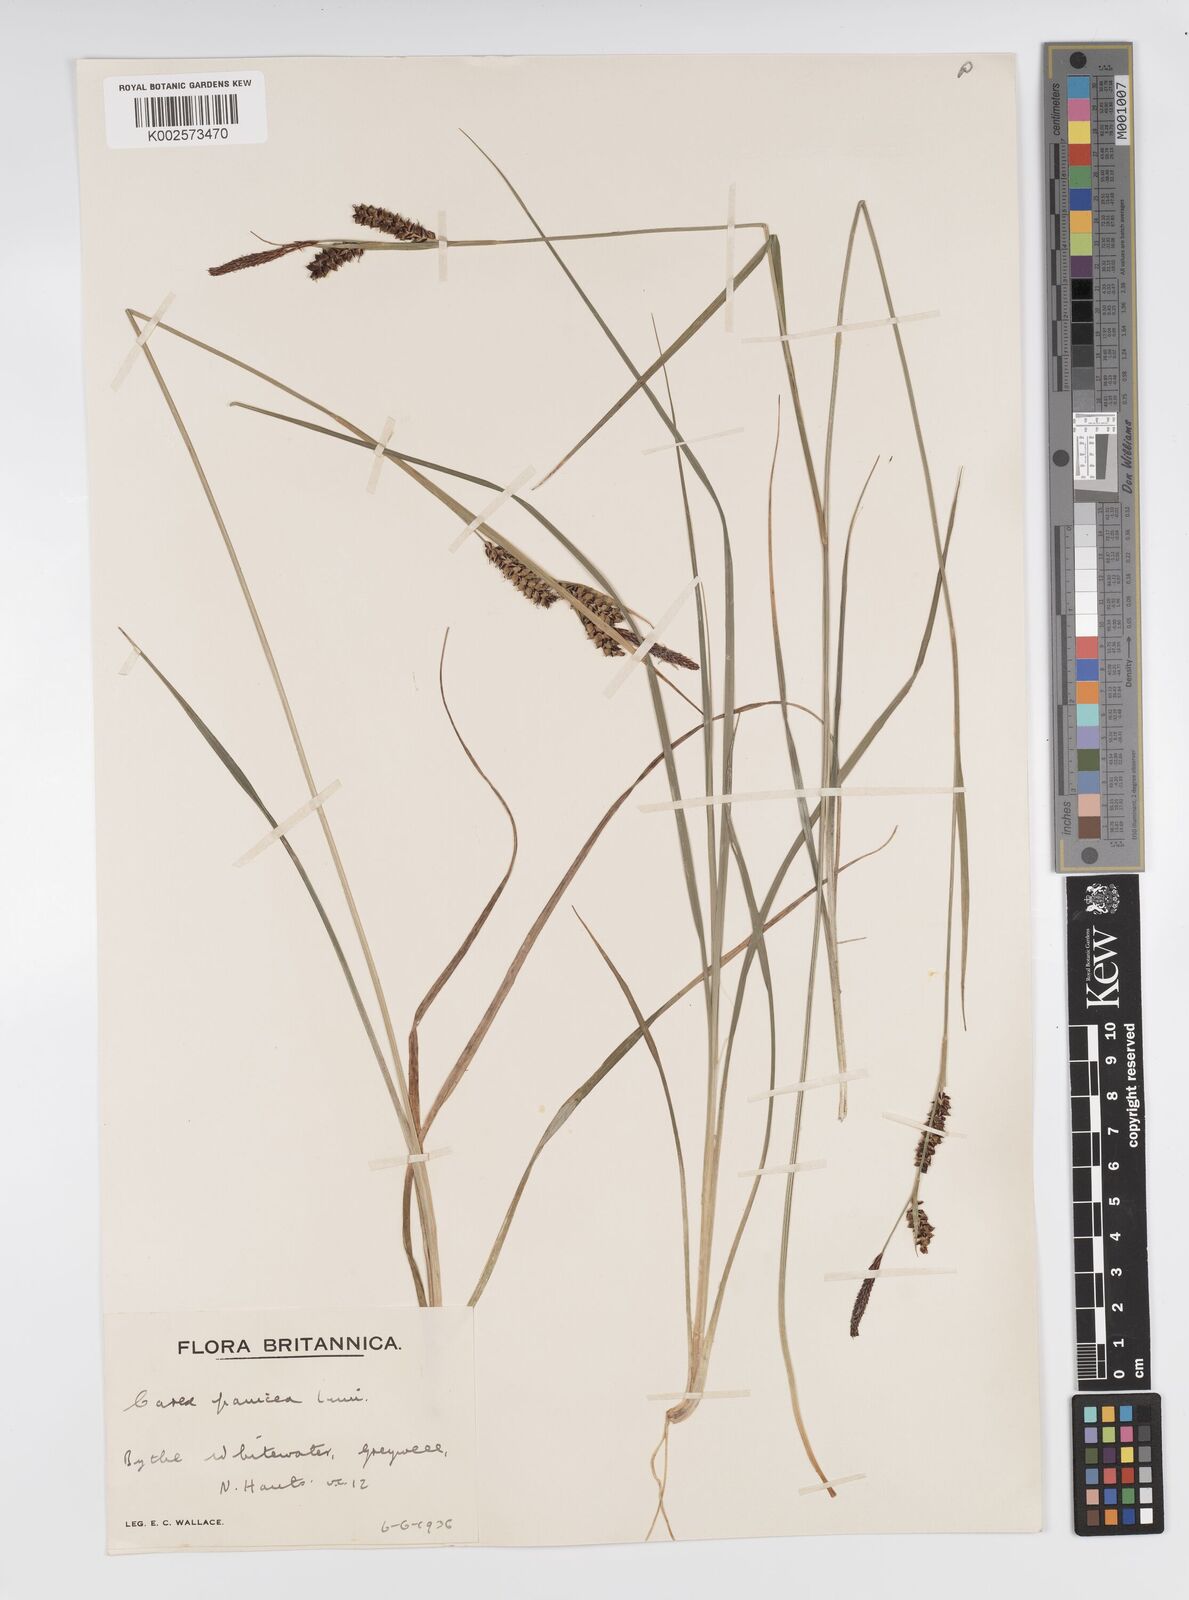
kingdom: Plantae
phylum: Tracheophyta
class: Liliopsida
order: Poales
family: Cyperaceae
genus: Carex
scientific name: Carex panicea
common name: Carnation sedge
